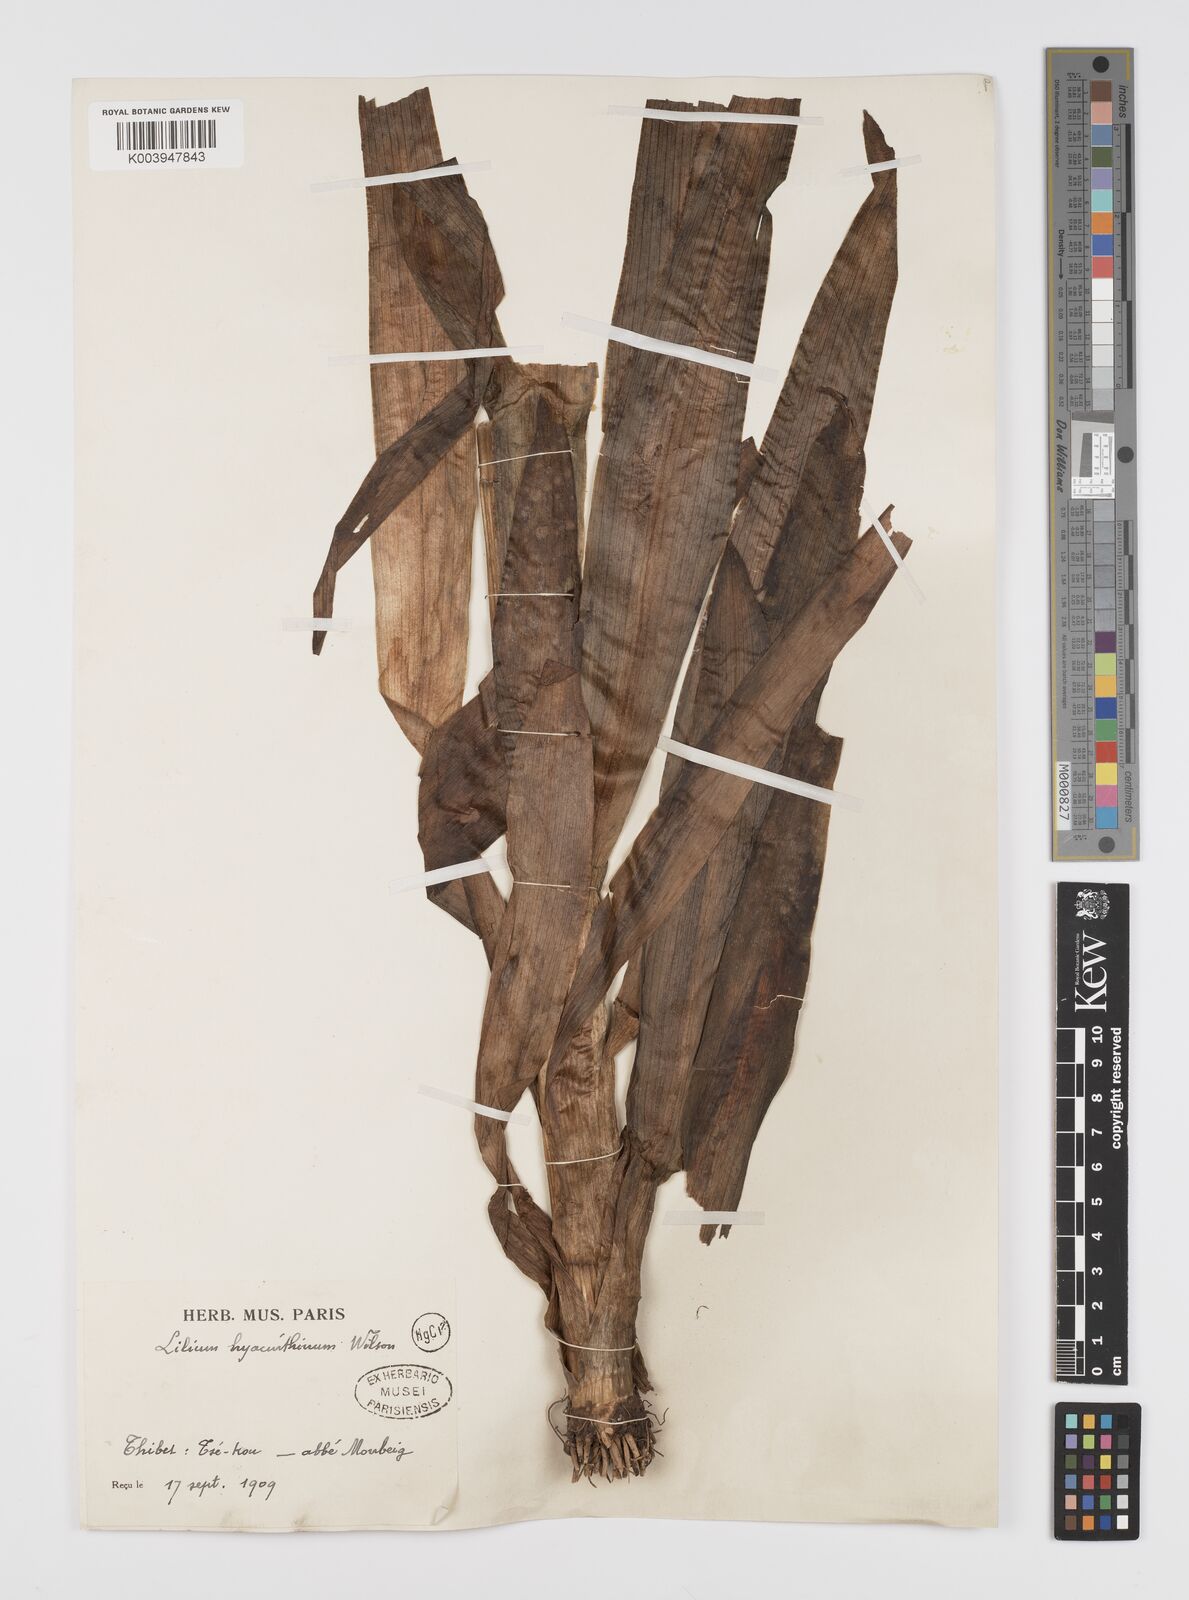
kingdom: Plantae
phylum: Tracheophyta
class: Liliopsida
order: Liliales
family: Liliaceae
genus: Notholirion
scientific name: Notholirion bulbuliferum
